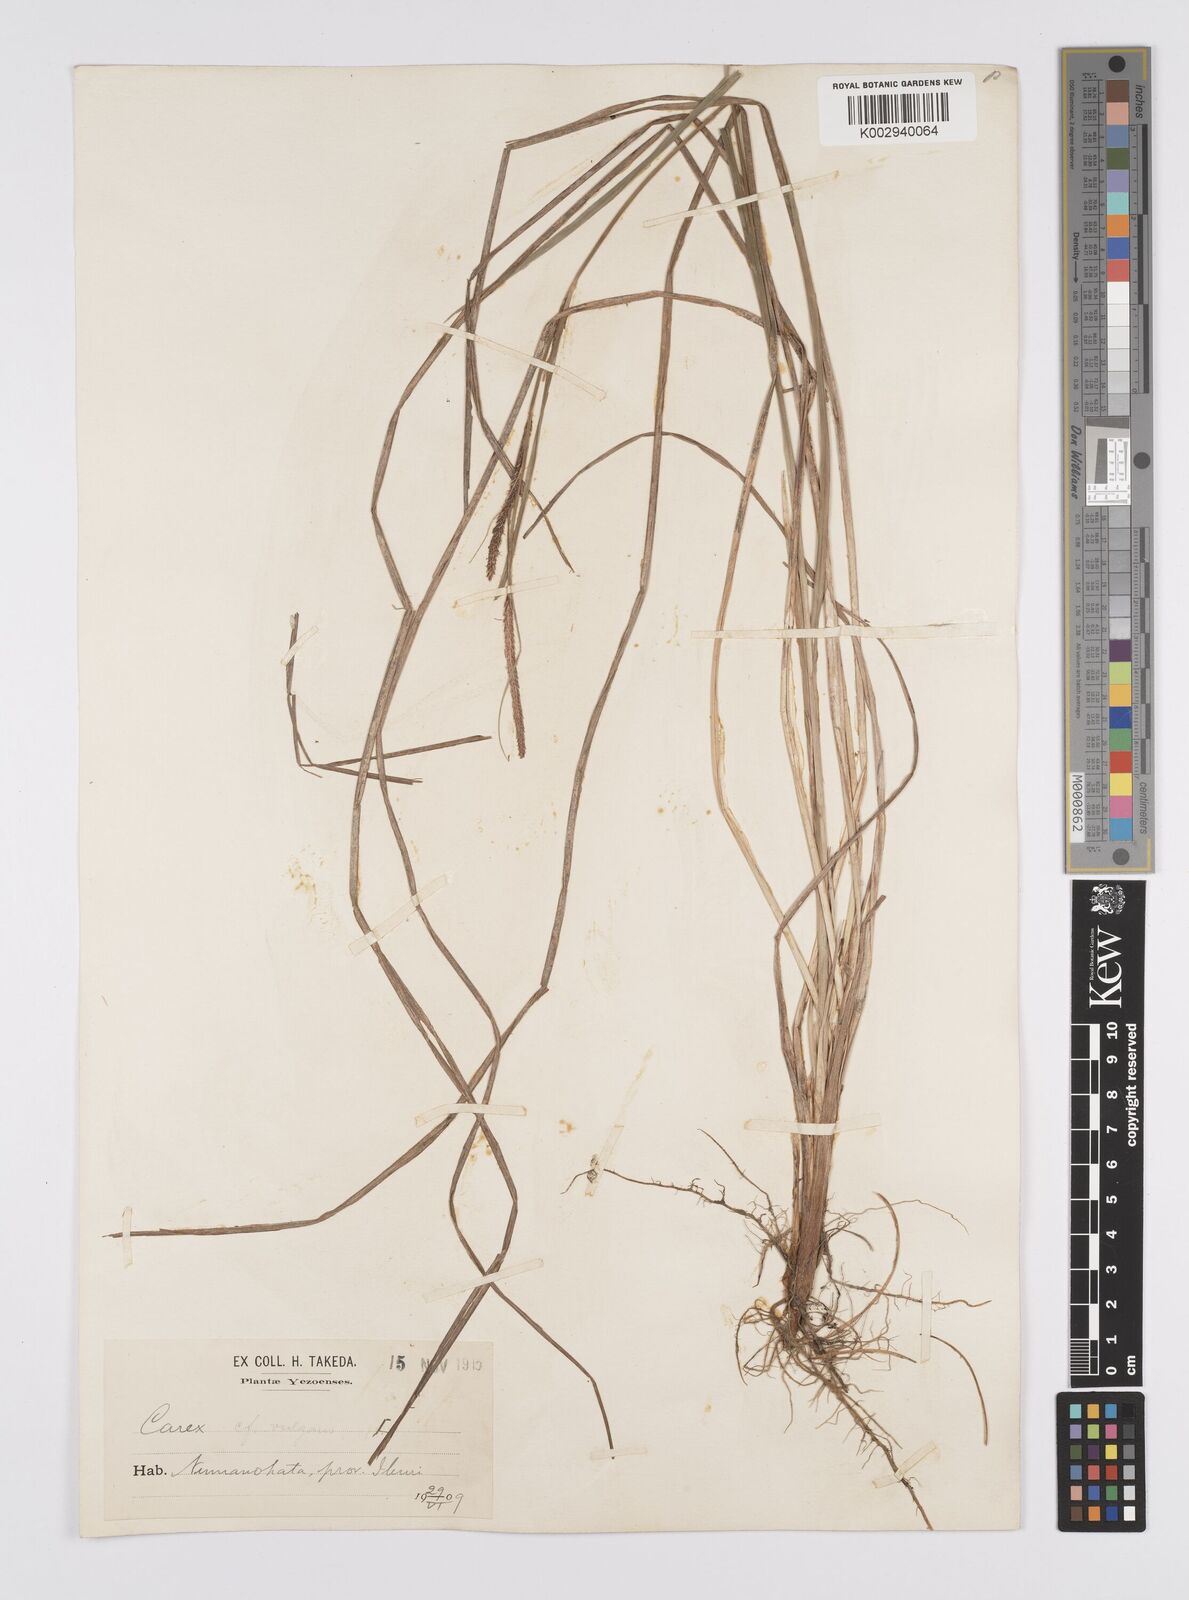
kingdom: Plantae
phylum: Tracheophyta
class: Liliopsida
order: Poales
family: Cyperaceae
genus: Carex
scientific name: Carex thunbergii
